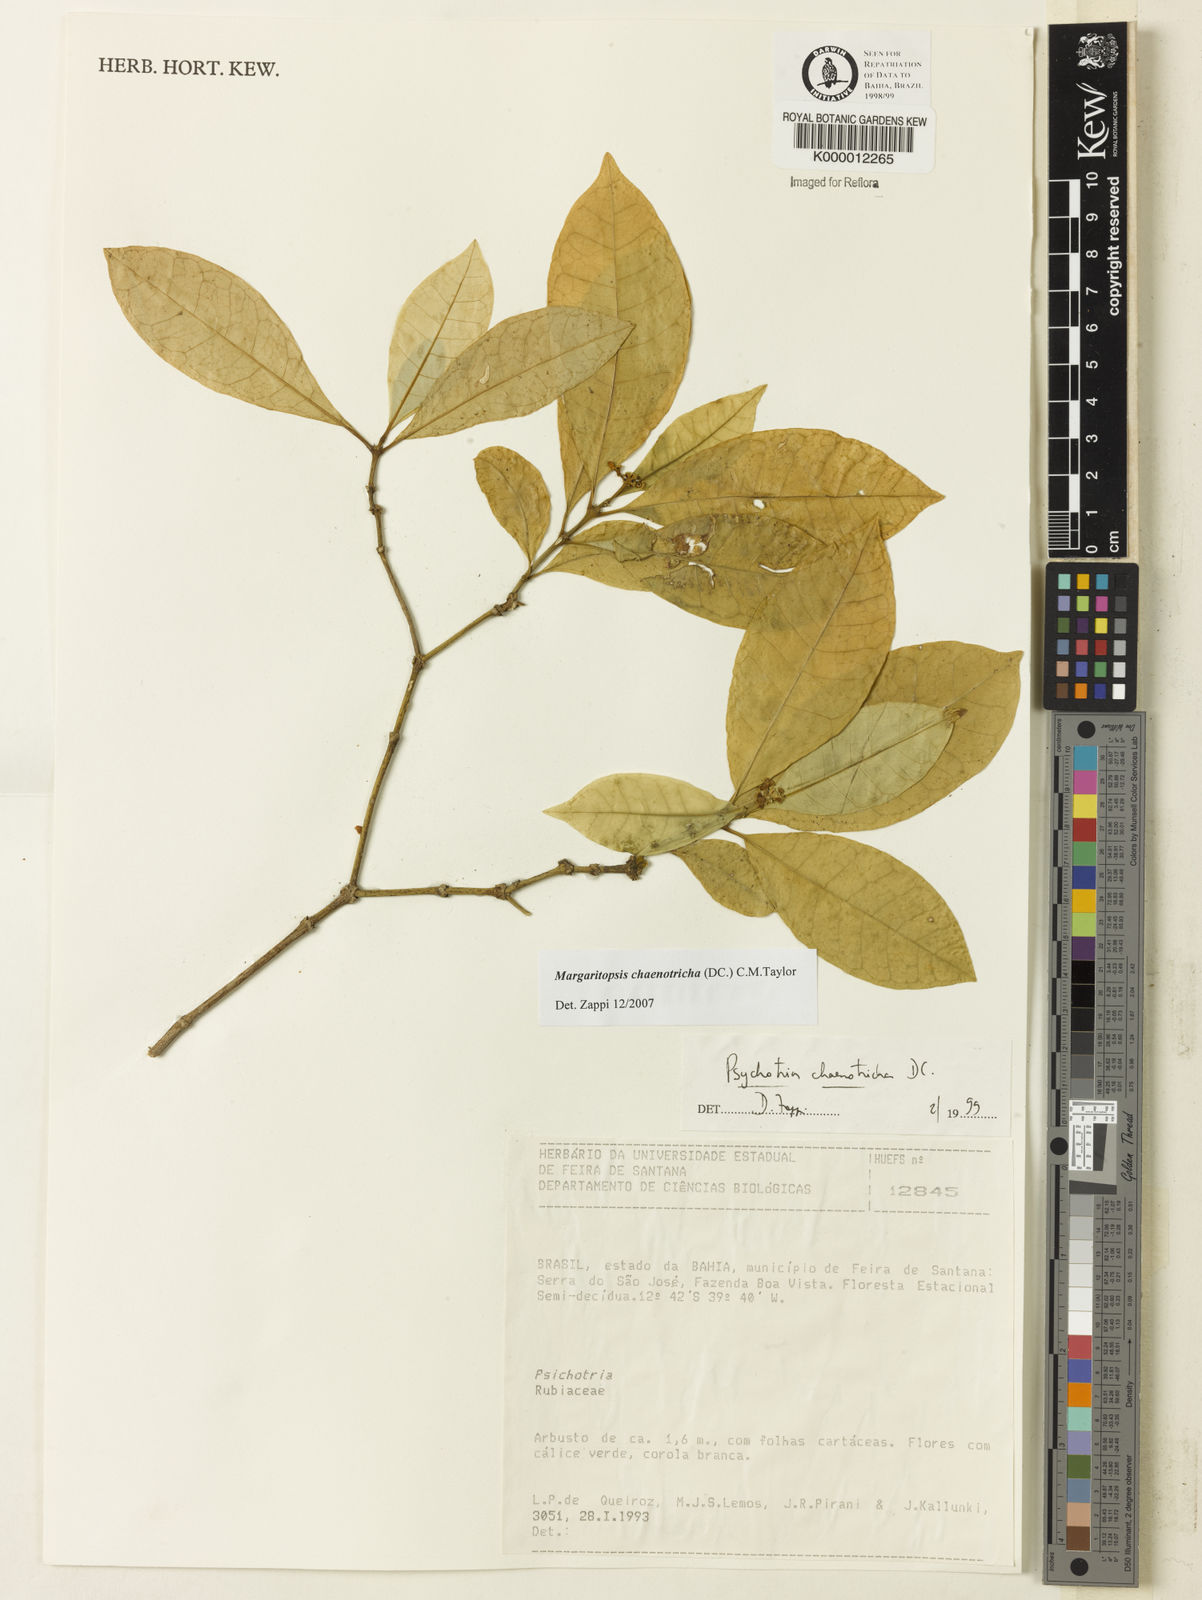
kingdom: Plantae
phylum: Tracheophyta
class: Magnoliopsida
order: Gentianales
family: Rubiaceae
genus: Eumachia
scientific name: Eumachia chaenotricha
